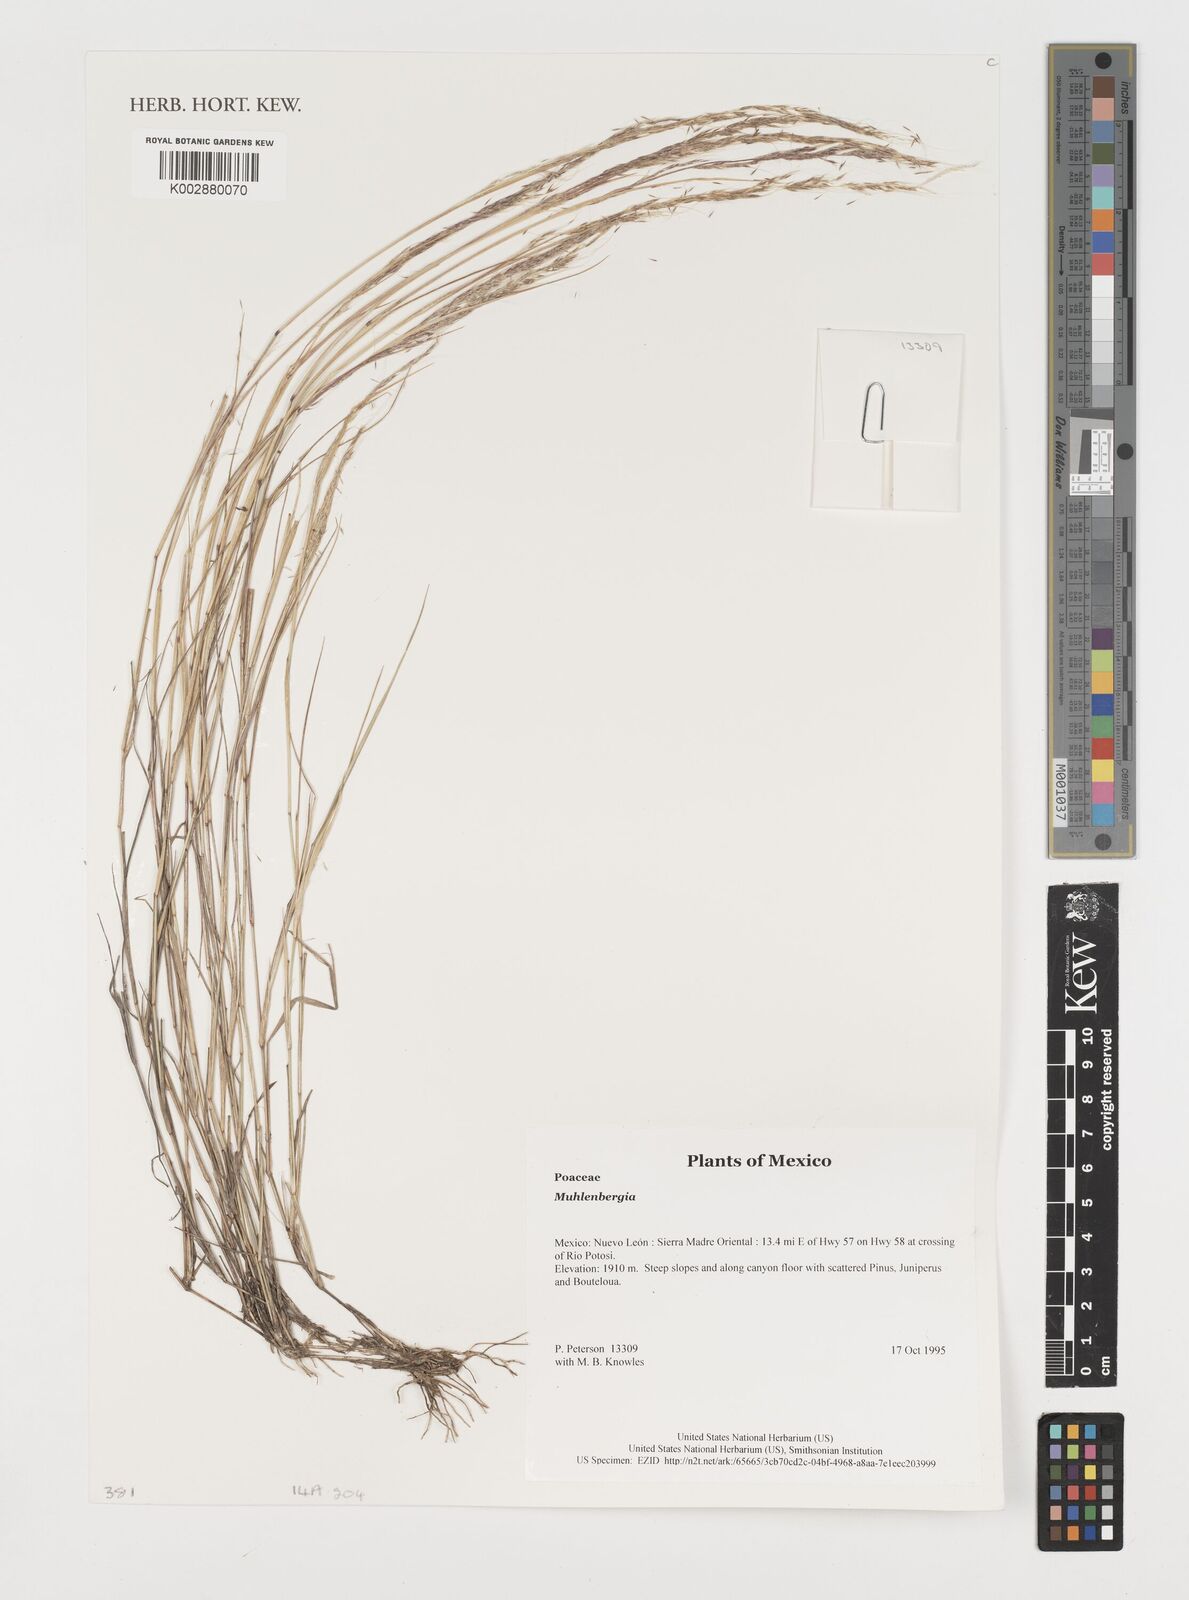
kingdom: Plantae
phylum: Tracheophyta
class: Liliopsida
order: Poales
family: Poaceae
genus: Muhlenbergia
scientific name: Muhlenbergia
